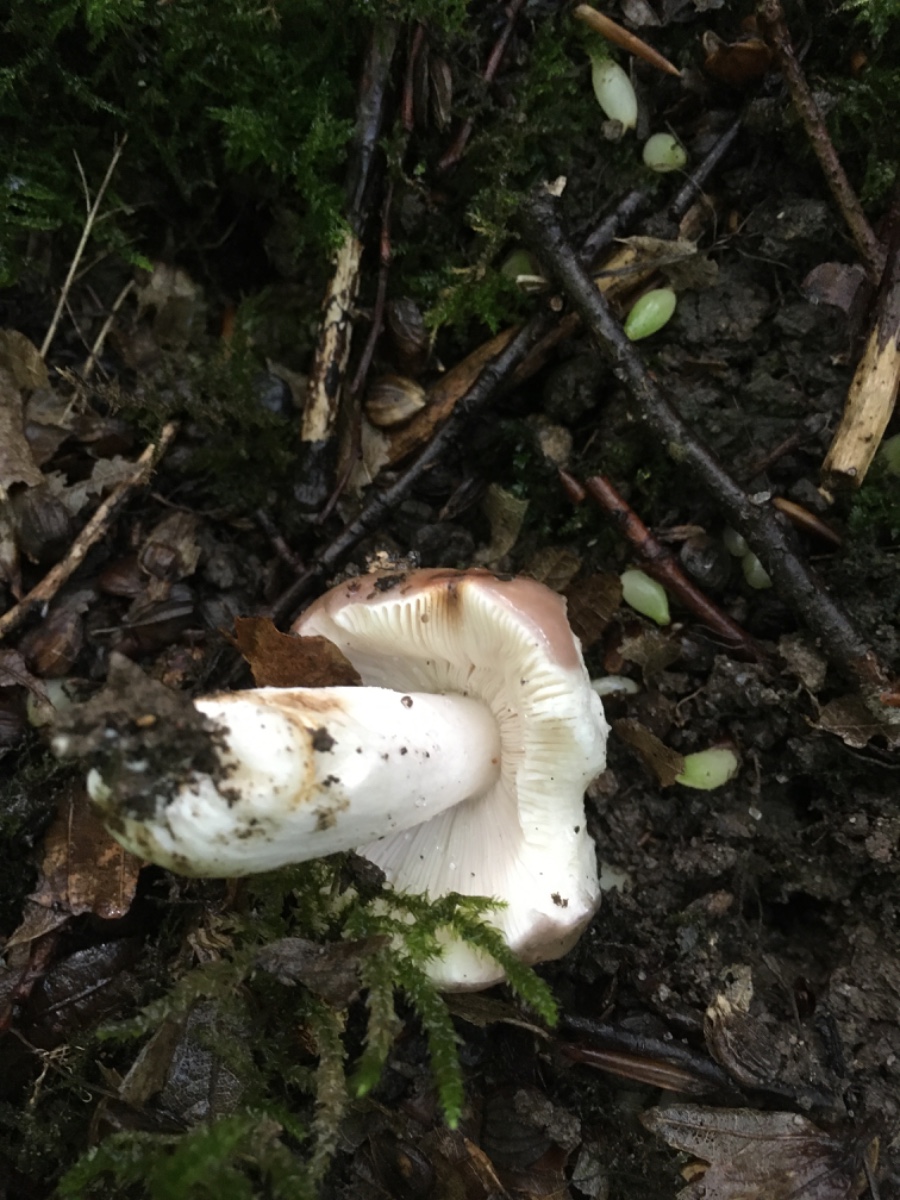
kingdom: Fungi
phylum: Basidiomycota
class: Agaricomycetes
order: Russulales
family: Russulaceae
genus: Russula
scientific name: Russula cyanoxantha
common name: broget skørhat
